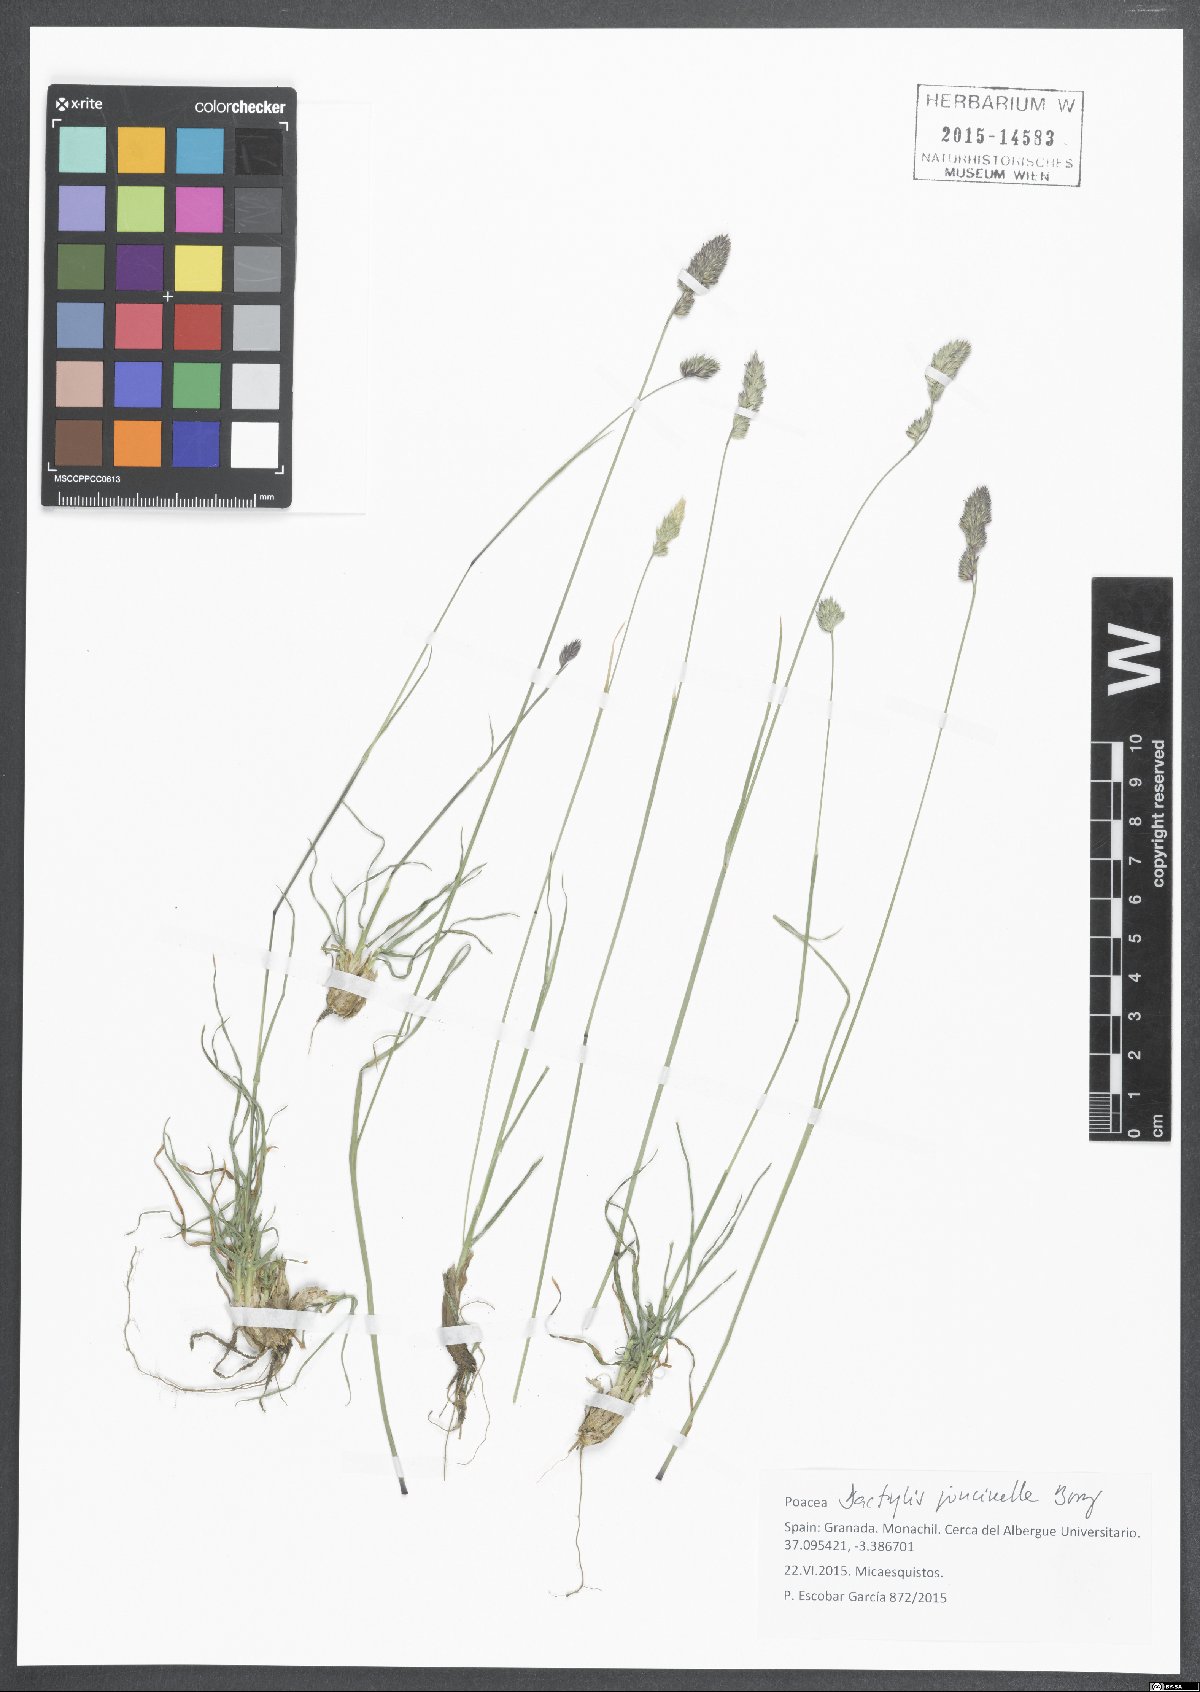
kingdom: Plantae
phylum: Tracheophyta
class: Liliopsida
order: Poales
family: Poaceae
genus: Dactylis
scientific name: Dactylis glomerata
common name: Orchardgrass
